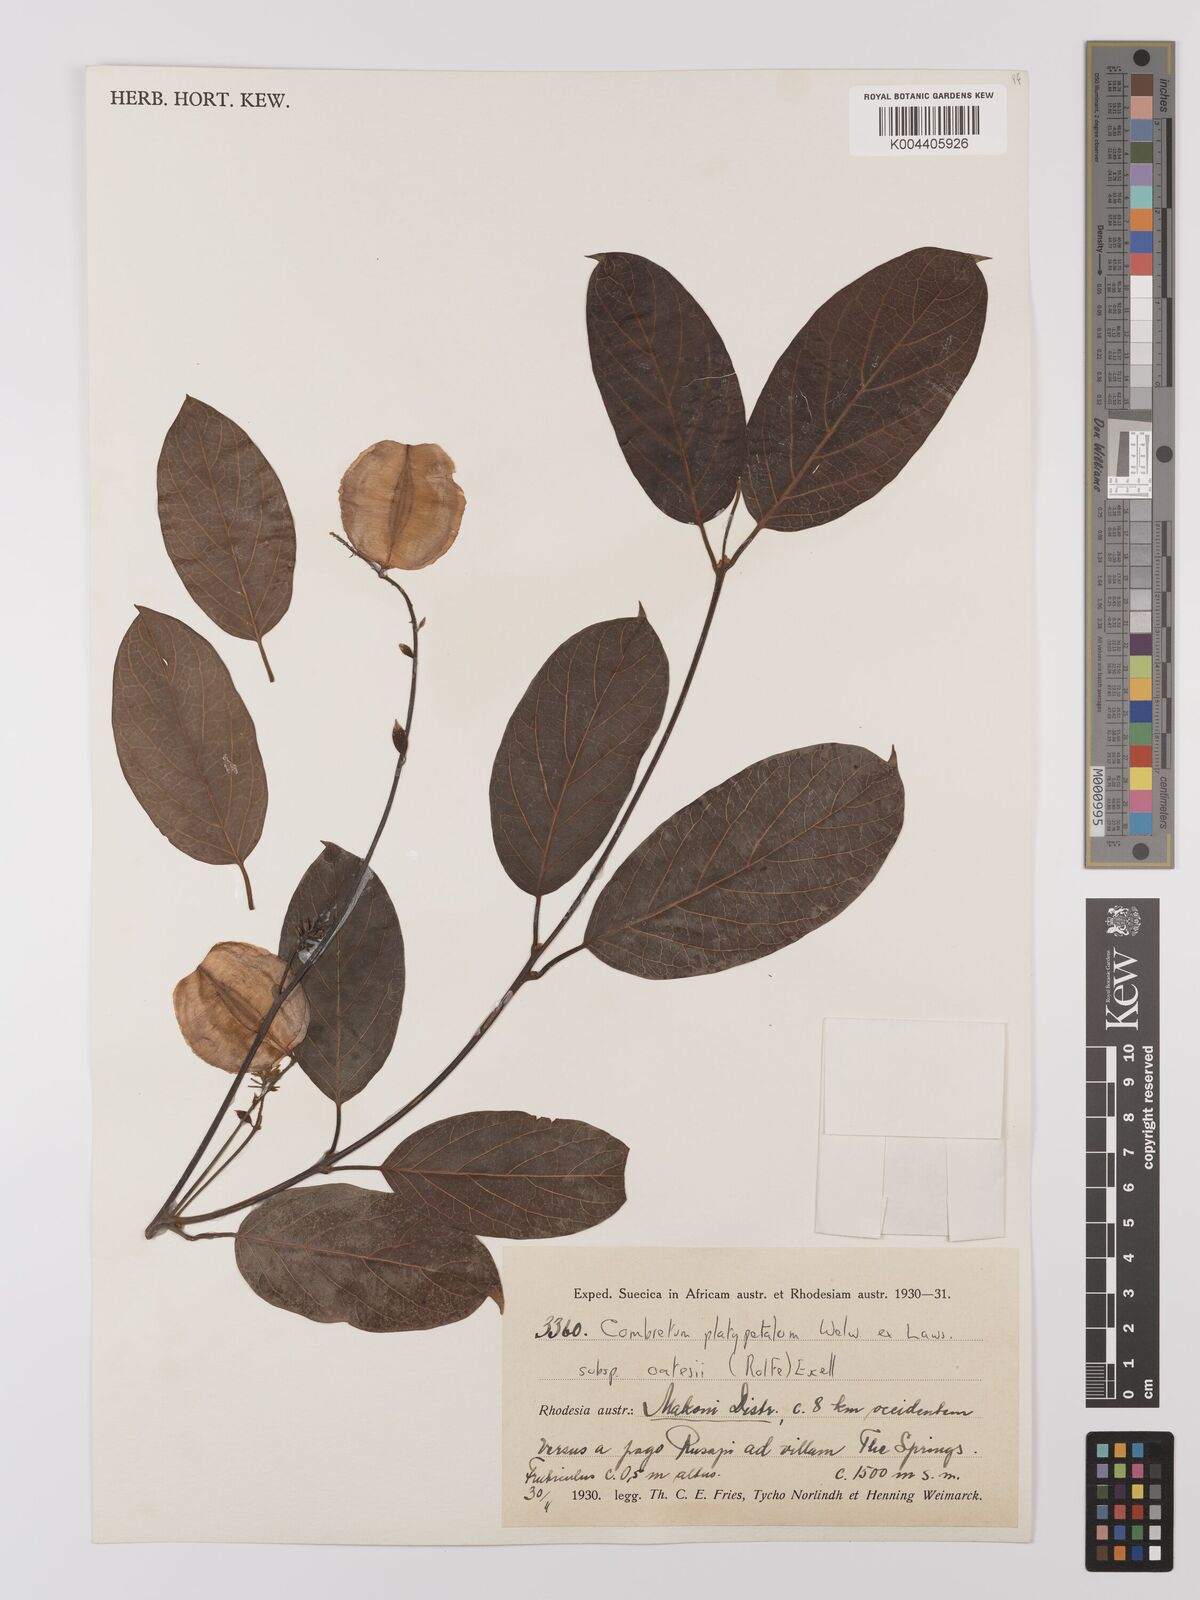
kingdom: Plantae
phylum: Tracheophyta
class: Magnoliopsida
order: Myrtales
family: Combretaceae
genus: Combretum
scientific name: Combretum oatesii
